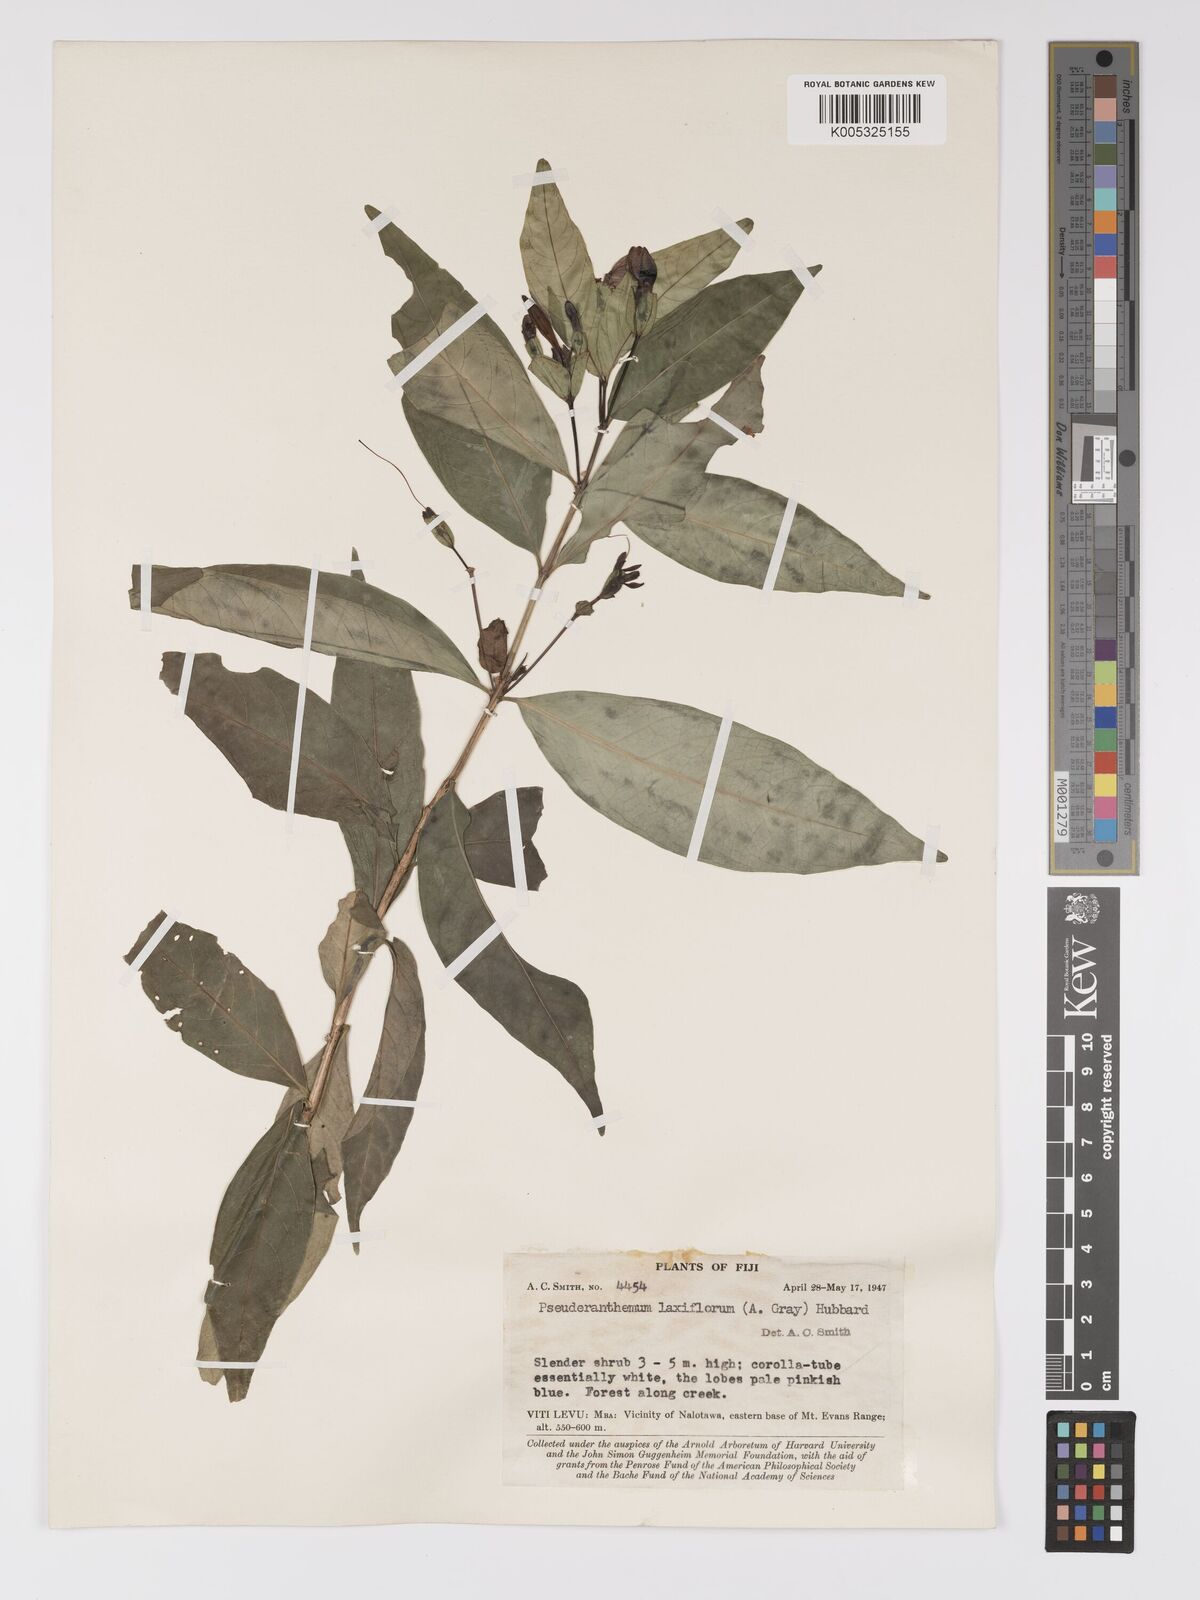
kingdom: Plantae
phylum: Tracheophyta
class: Magnoliopsida
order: Lamiales
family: Acanthaceae
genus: Pseuderanthemum
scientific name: Pseuderanthemum laxiflorum
